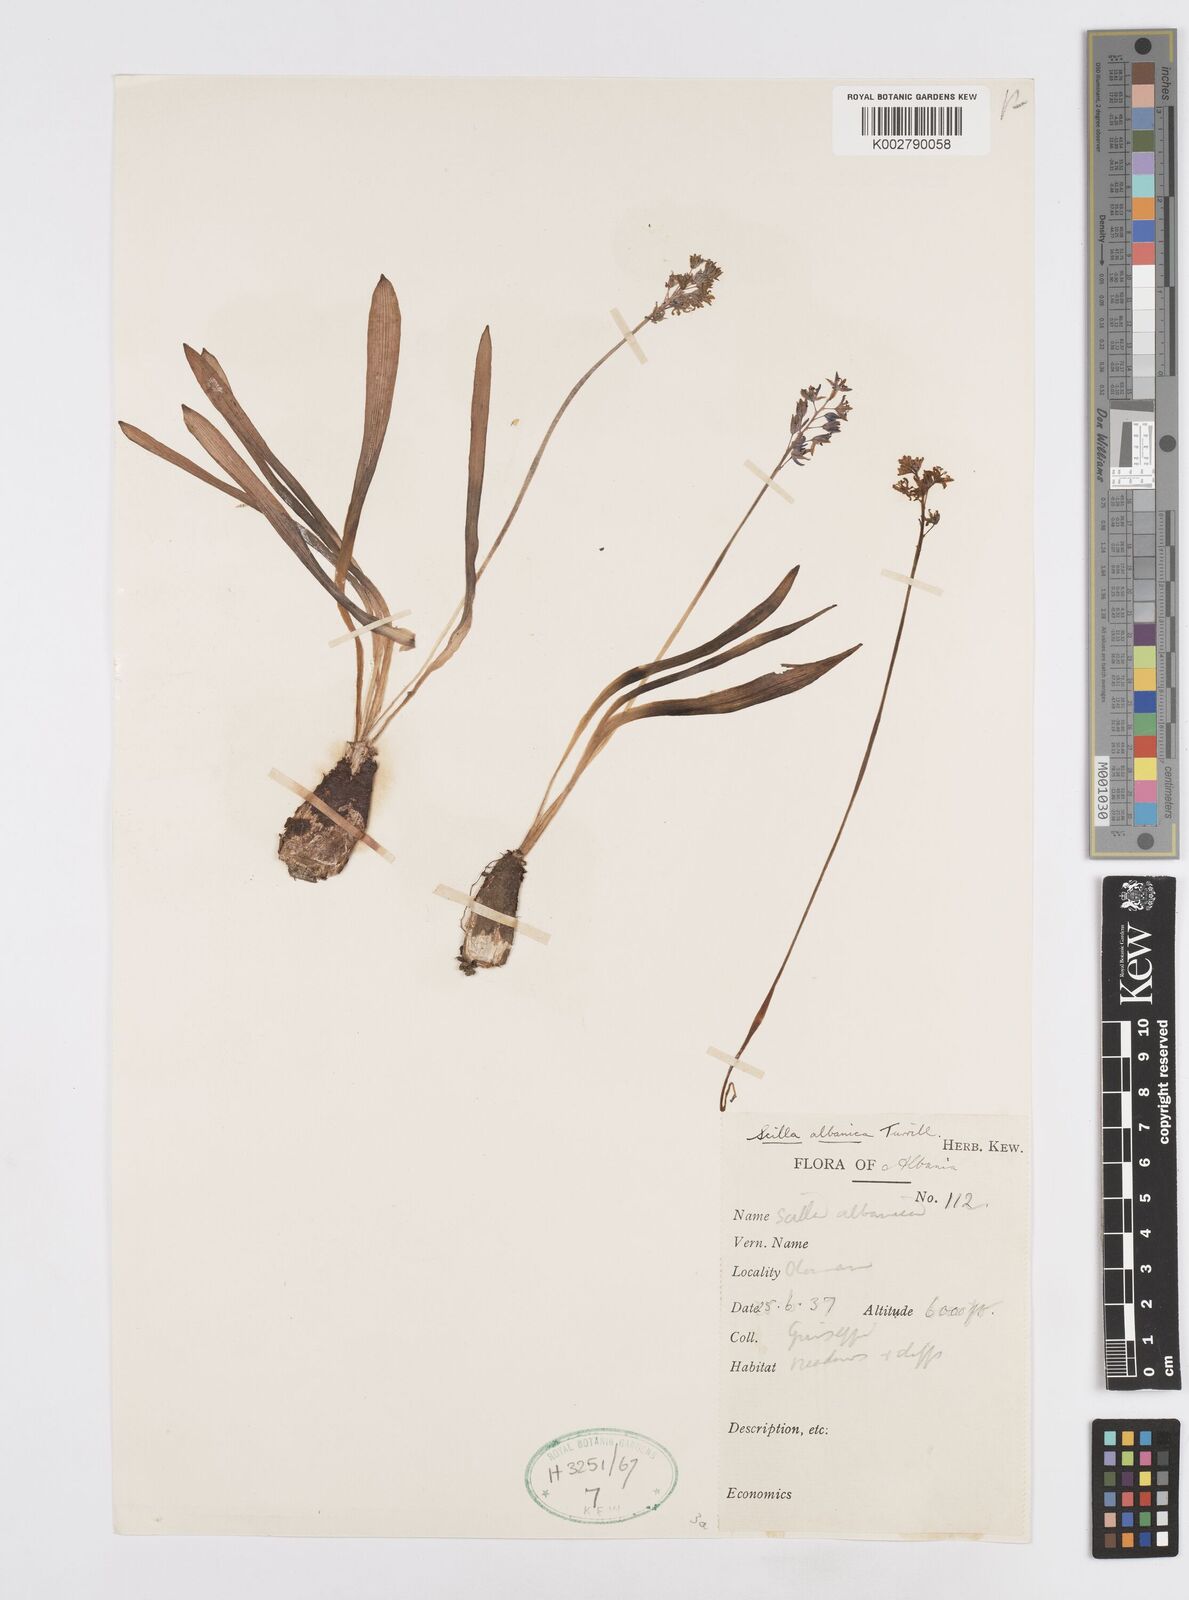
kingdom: Plantae
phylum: Tracheophyta
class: Liliopsida
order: Asparagales
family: Asparagaceae
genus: Scilla
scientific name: Scilla albanica
